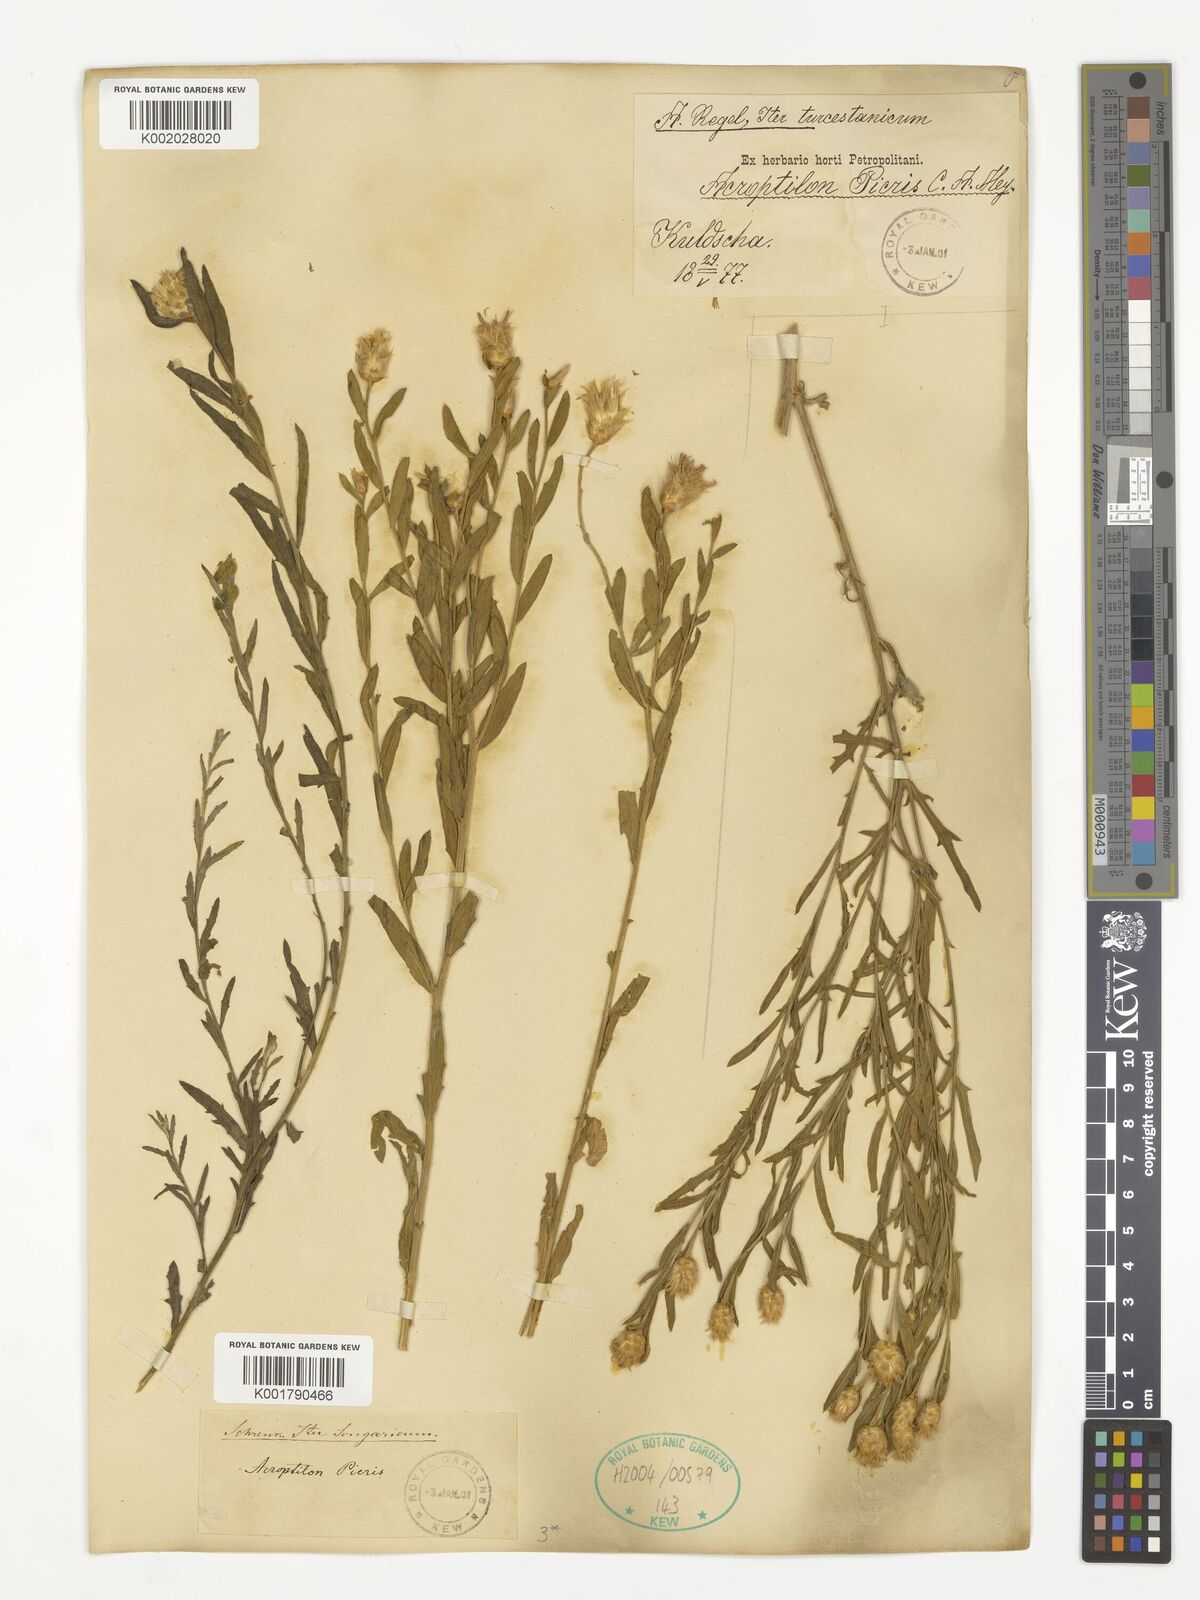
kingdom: Plantae
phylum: Tracheophyta
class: Magnoliopsida
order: Asterales
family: Asteraceae
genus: Leuzea
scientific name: Leuzea repens
